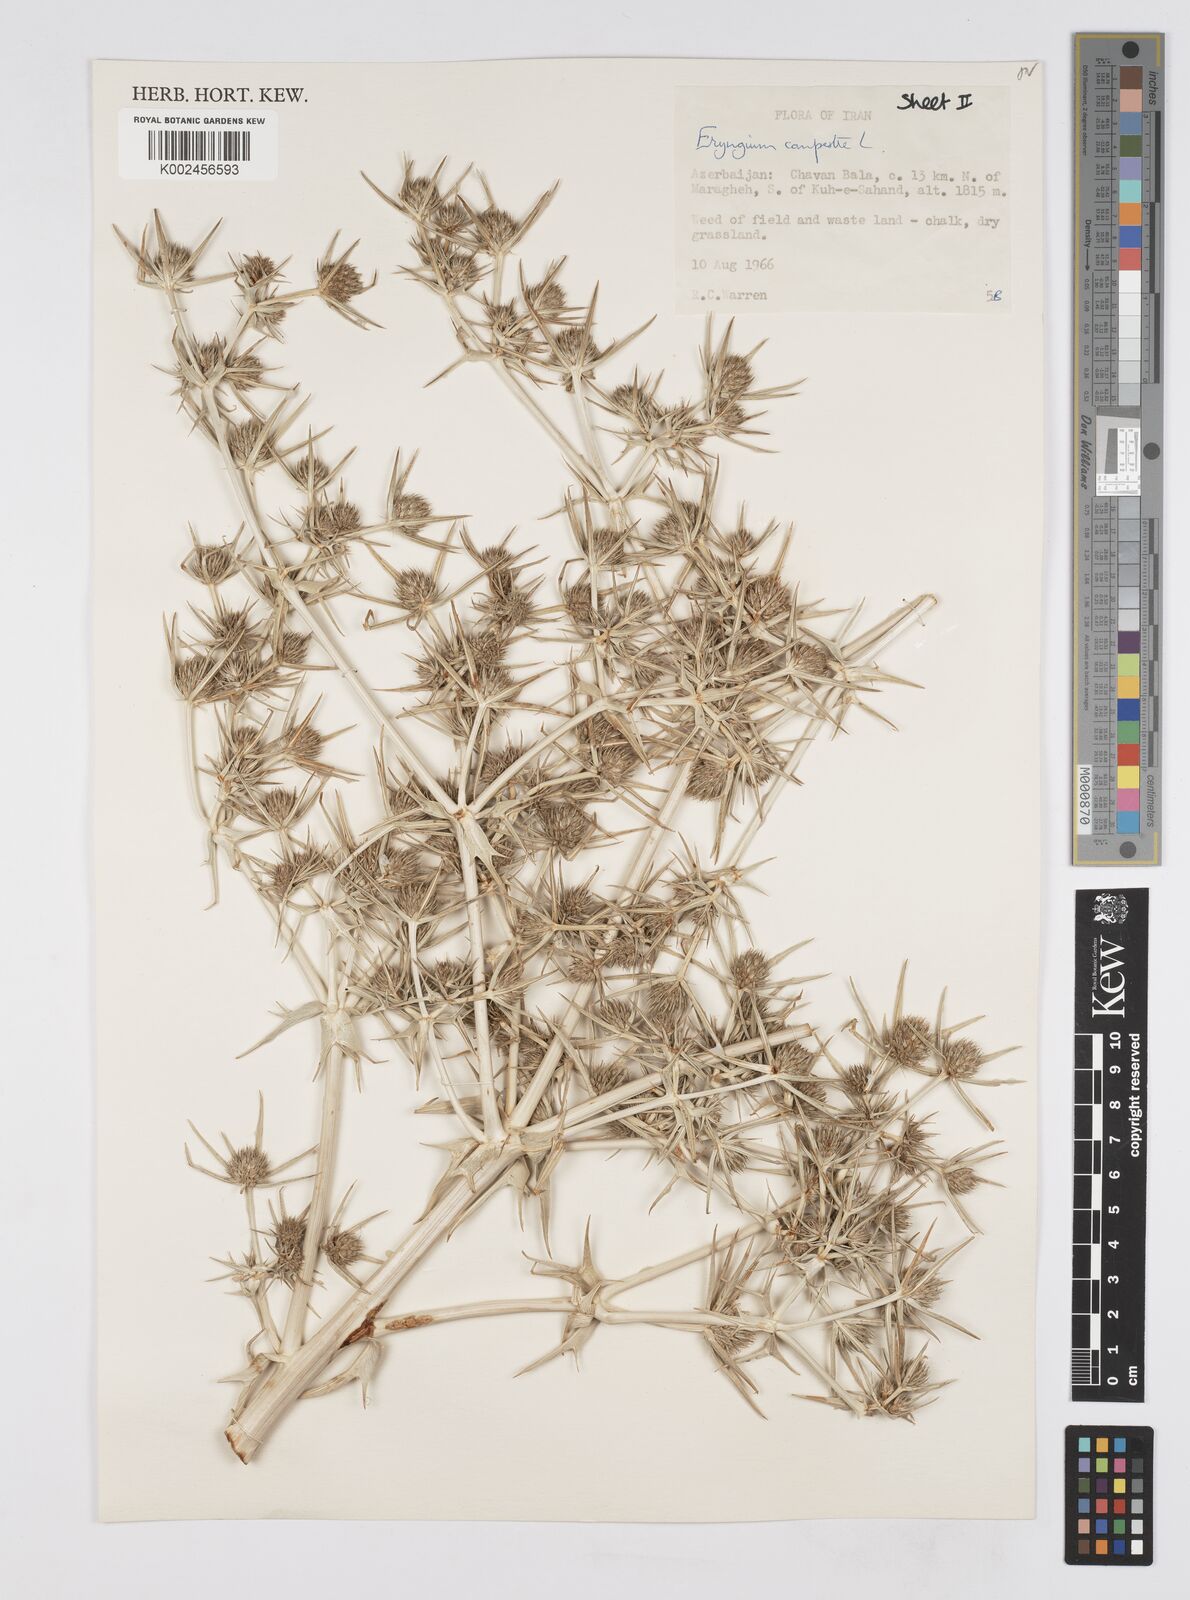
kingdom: Plantae
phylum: Tracheophyta
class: Magnoliopsida
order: Apiales
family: Apiaceae
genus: Eryngium
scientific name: Eryngium campestre
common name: Field eryngo
